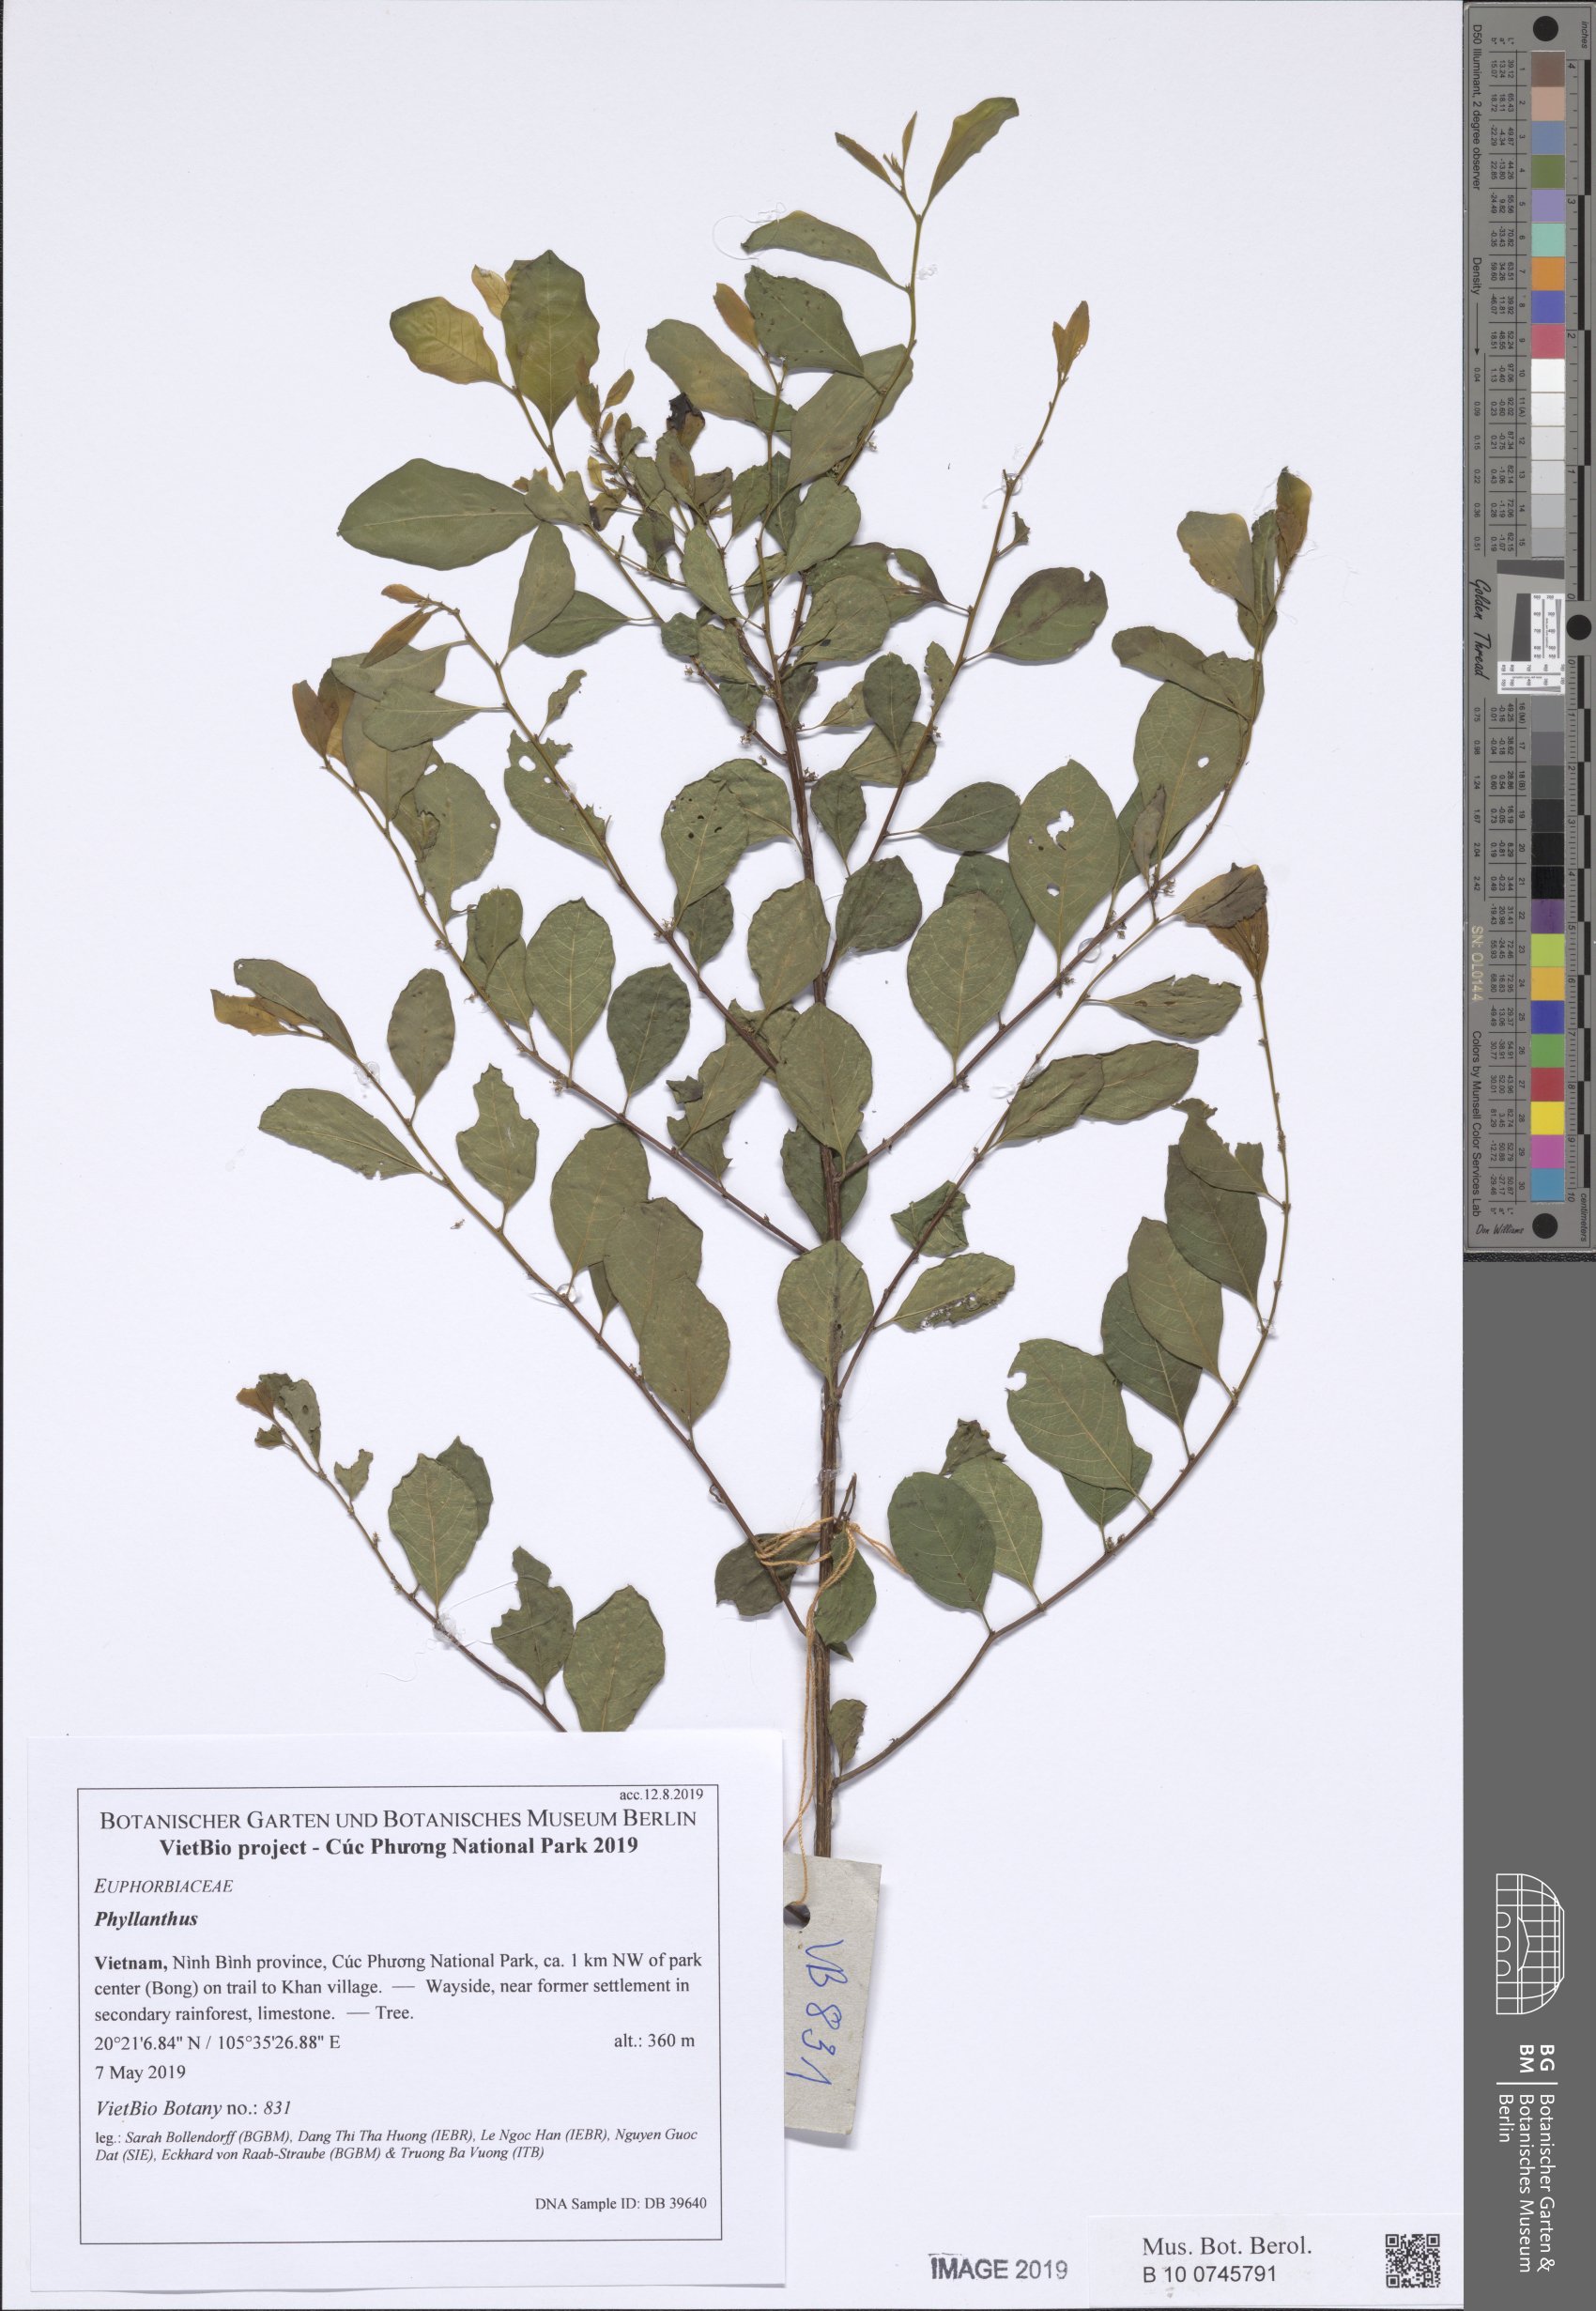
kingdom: Plantae
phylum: Tracheophyta
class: Magnoliopsida
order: Malpighiales
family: Phyllanthaceae
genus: Flueggea
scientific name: Flueggea virosa
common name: Common bushweed
